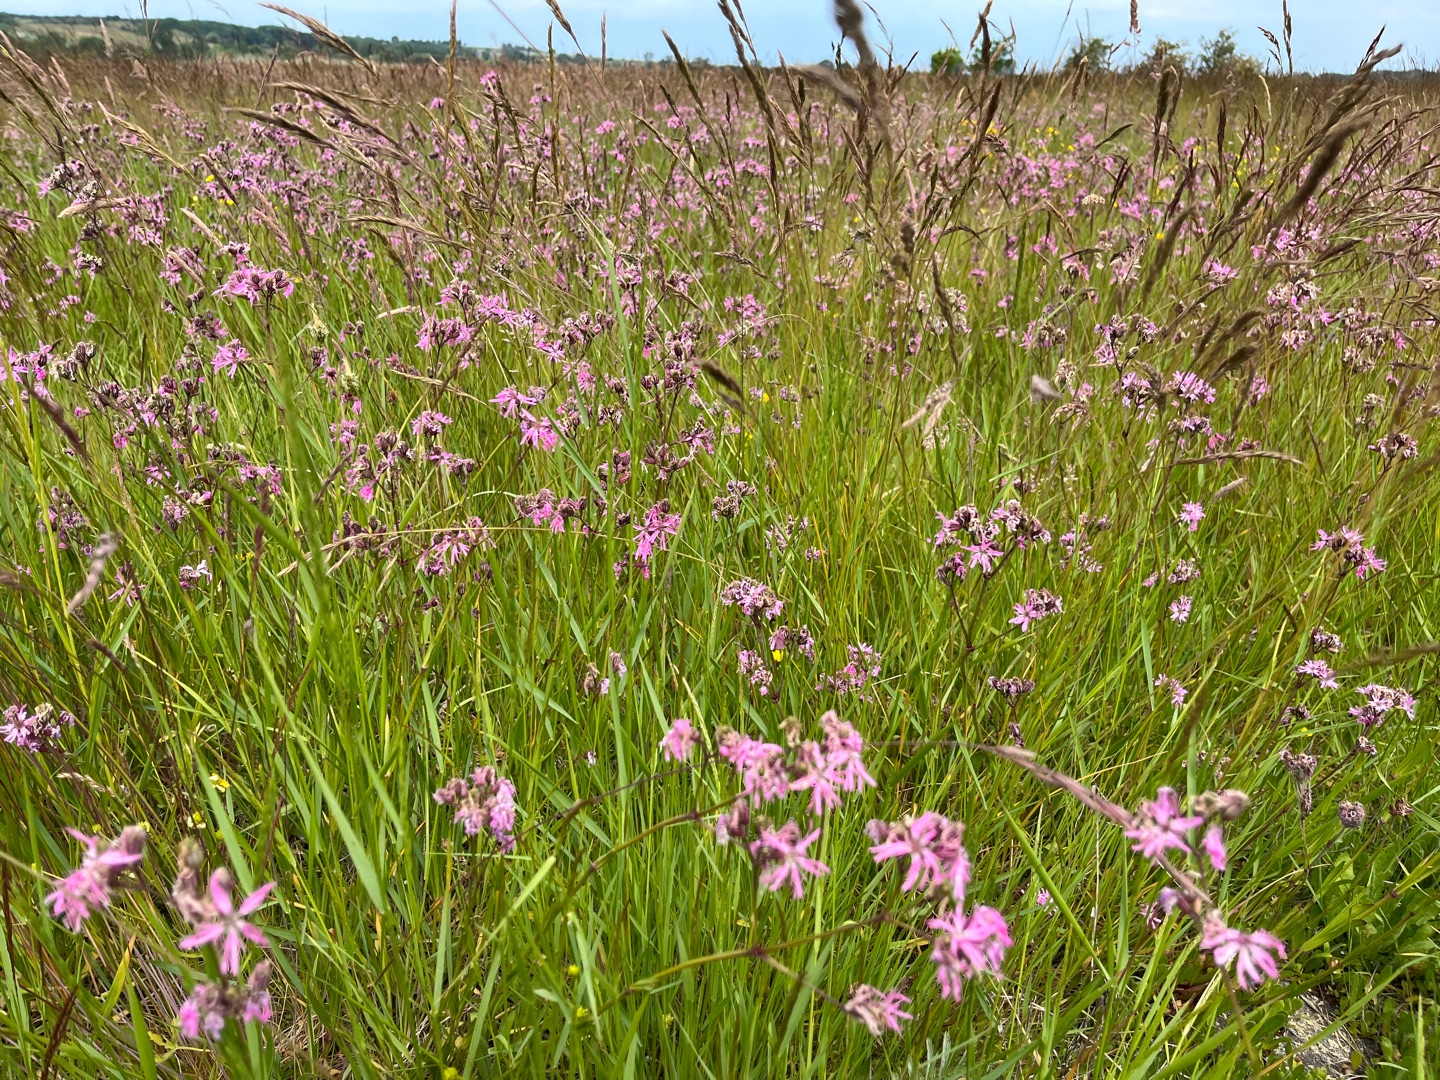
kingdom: Plantae
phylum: Tracheophyta
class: Magnoliopsida
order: Caryophyllales
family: Caryophyllaceae
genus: Silene
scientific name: Silene flos-cuculi
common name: Trævlekrone
